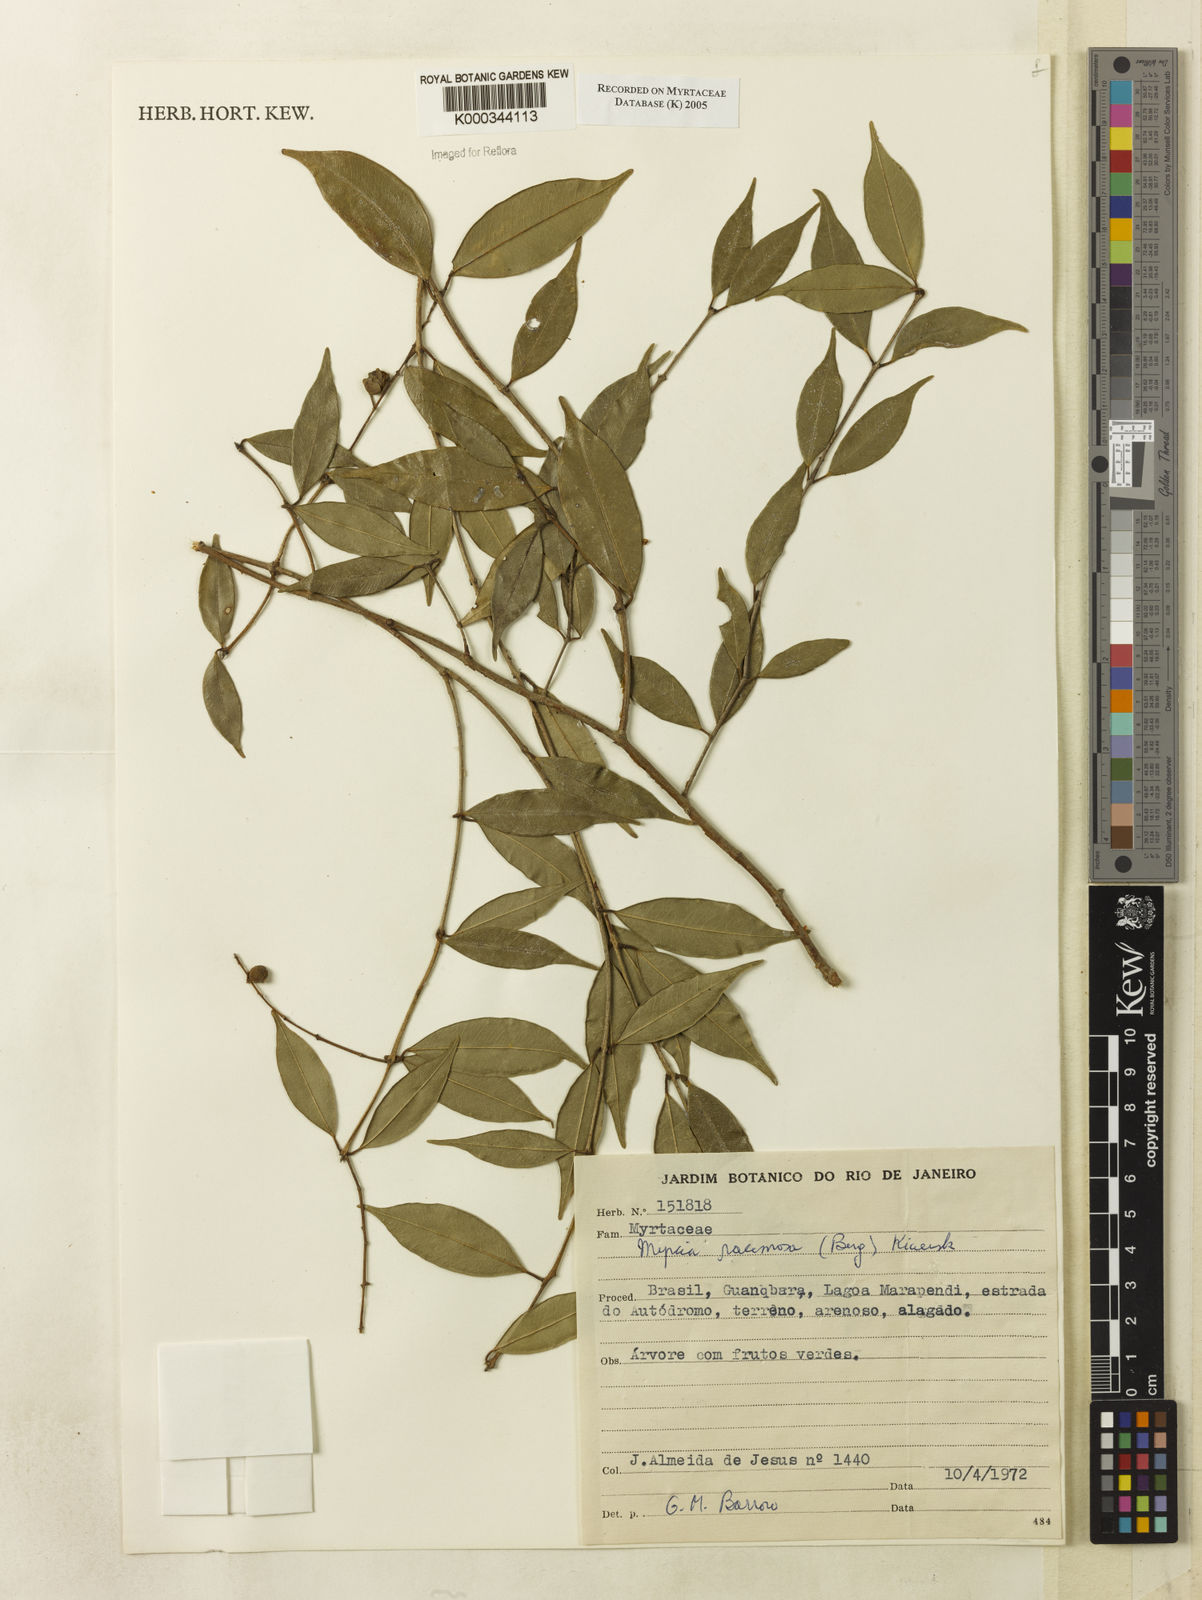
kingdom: Plantae
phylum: Tracheophyta
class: Magnoliopsida
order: Myrtales
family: Myrtaceae
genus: Myrcia
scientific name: Myrcia racemosa
